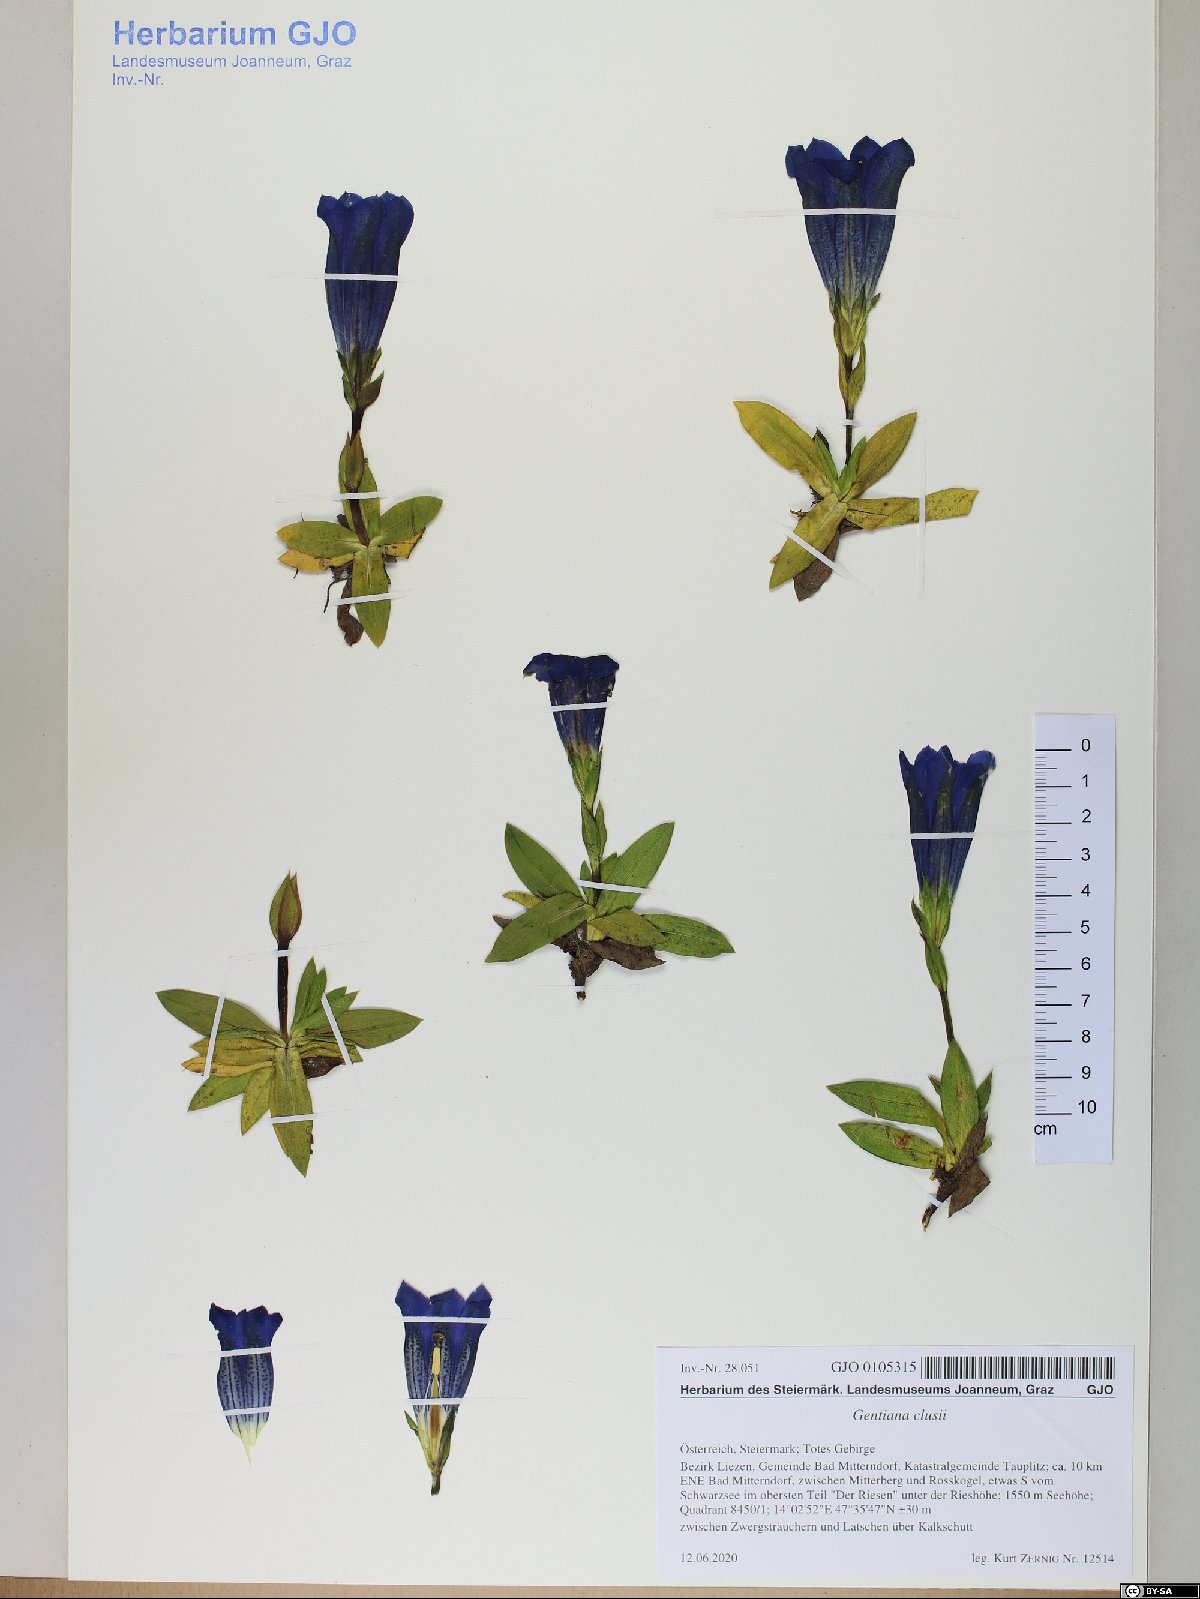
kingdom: Plantae
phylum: Tracheophyta
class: Magnoliopsida
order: Gentianales
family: Gentianaceae
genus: Gentiana
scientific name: Gentiana clusii
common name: Trumpet gentian
